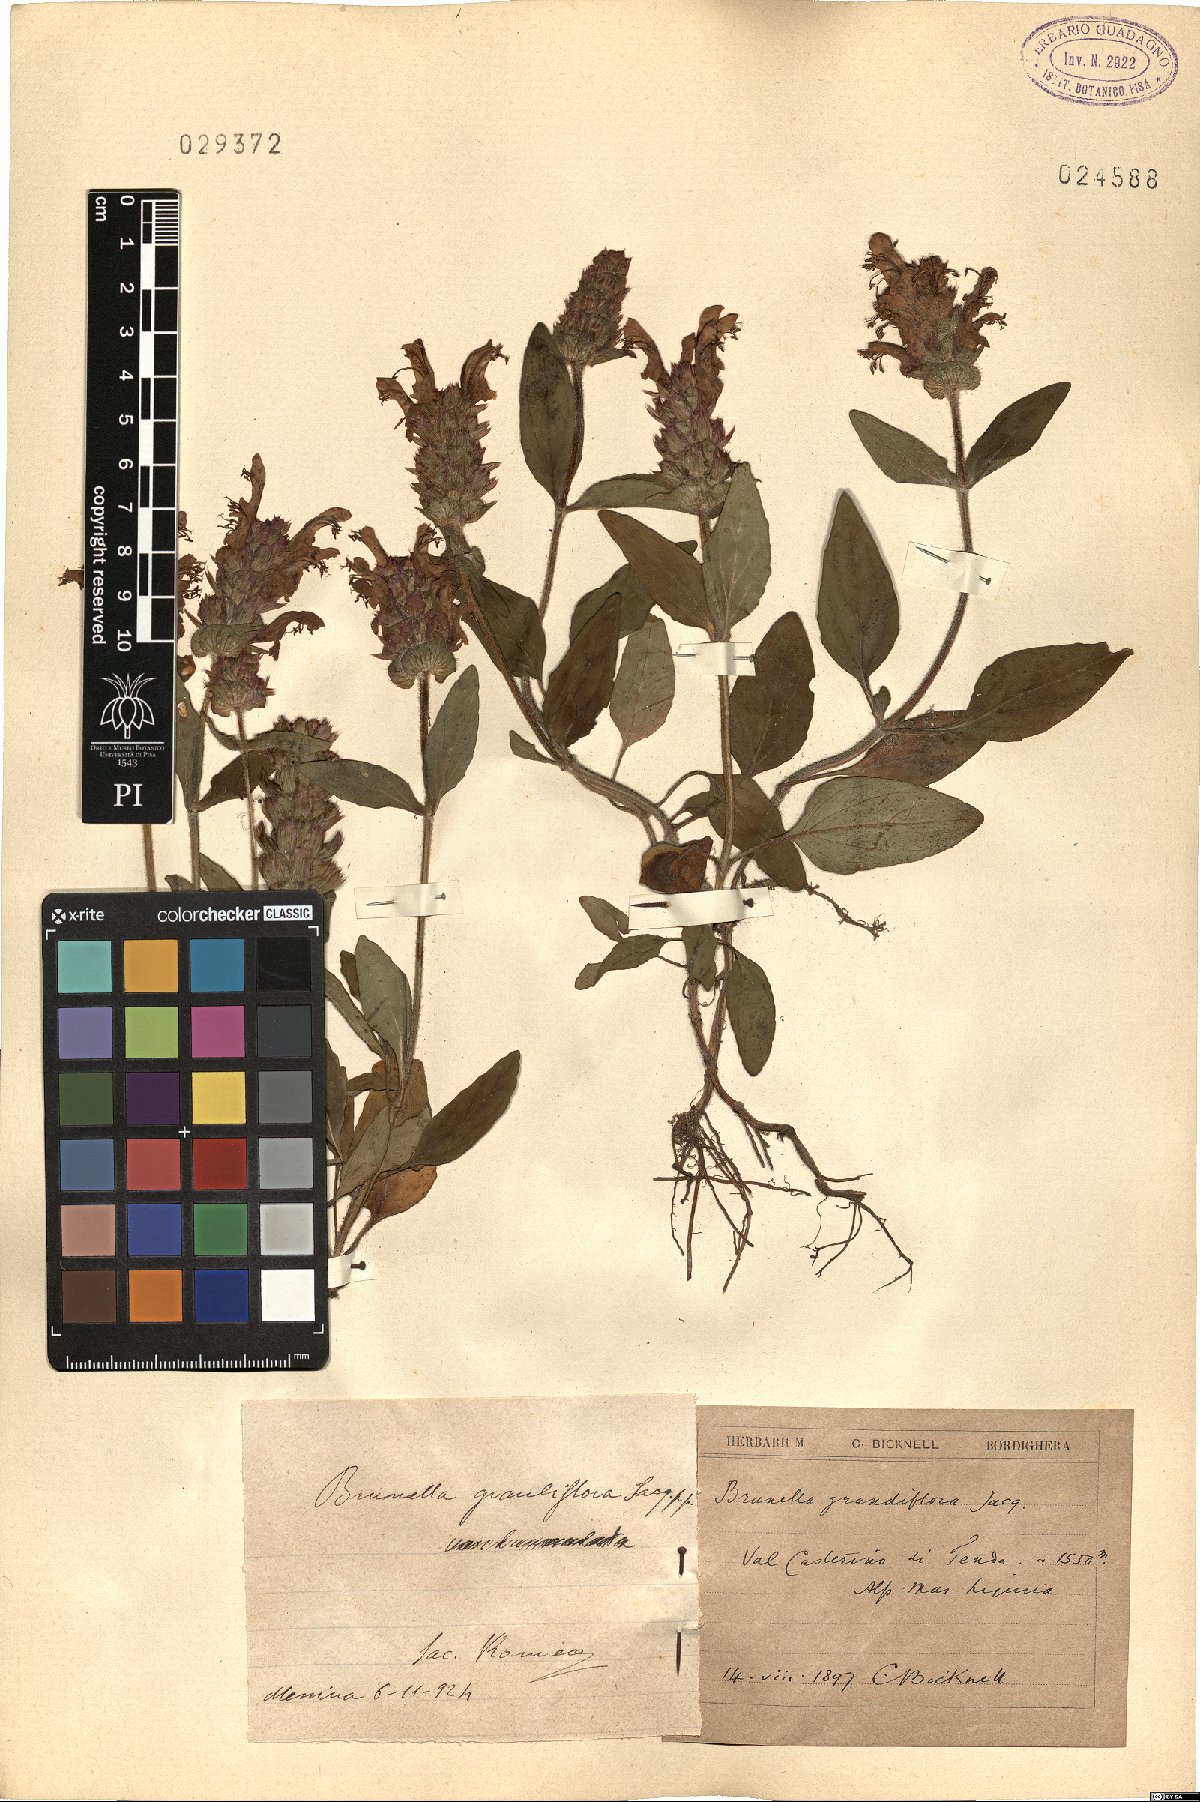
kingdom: Plantae
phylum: Tracheophyta
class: Magnoliopsida
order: Lamiales
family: Lamiaceae
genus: Prunella
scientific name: Prunella grandiflora
